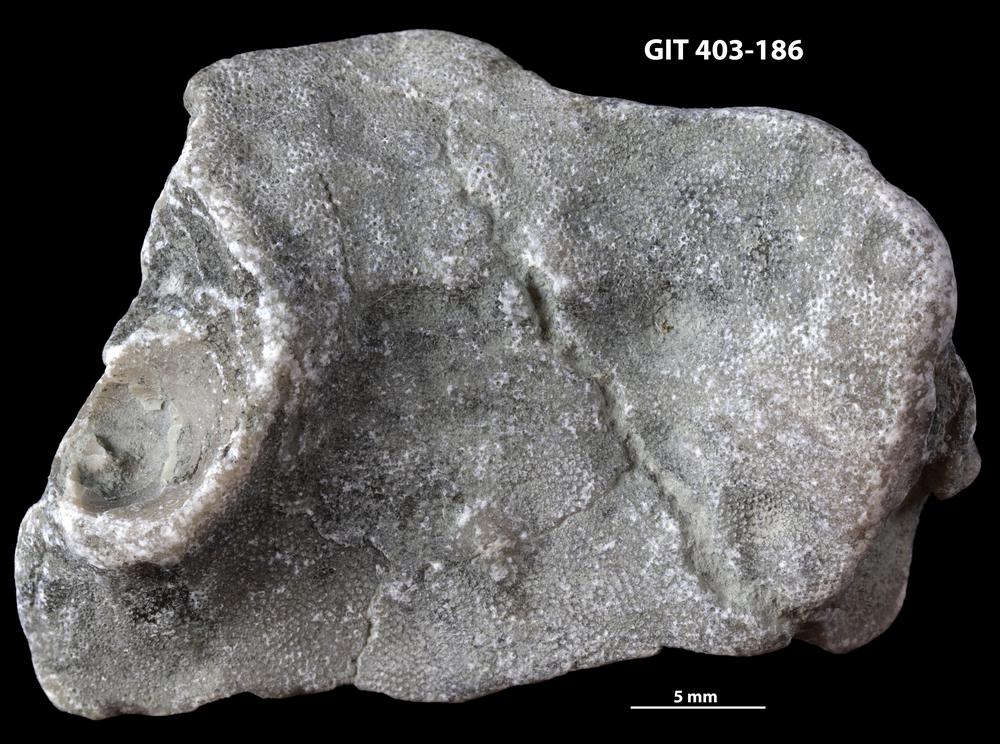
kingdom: Animalia
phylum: Bryozoa
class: Stenolaemata
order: Cystoporida
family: Fistuliporidae
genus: Fistulipora
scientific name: Fistulipora przhidolensis
